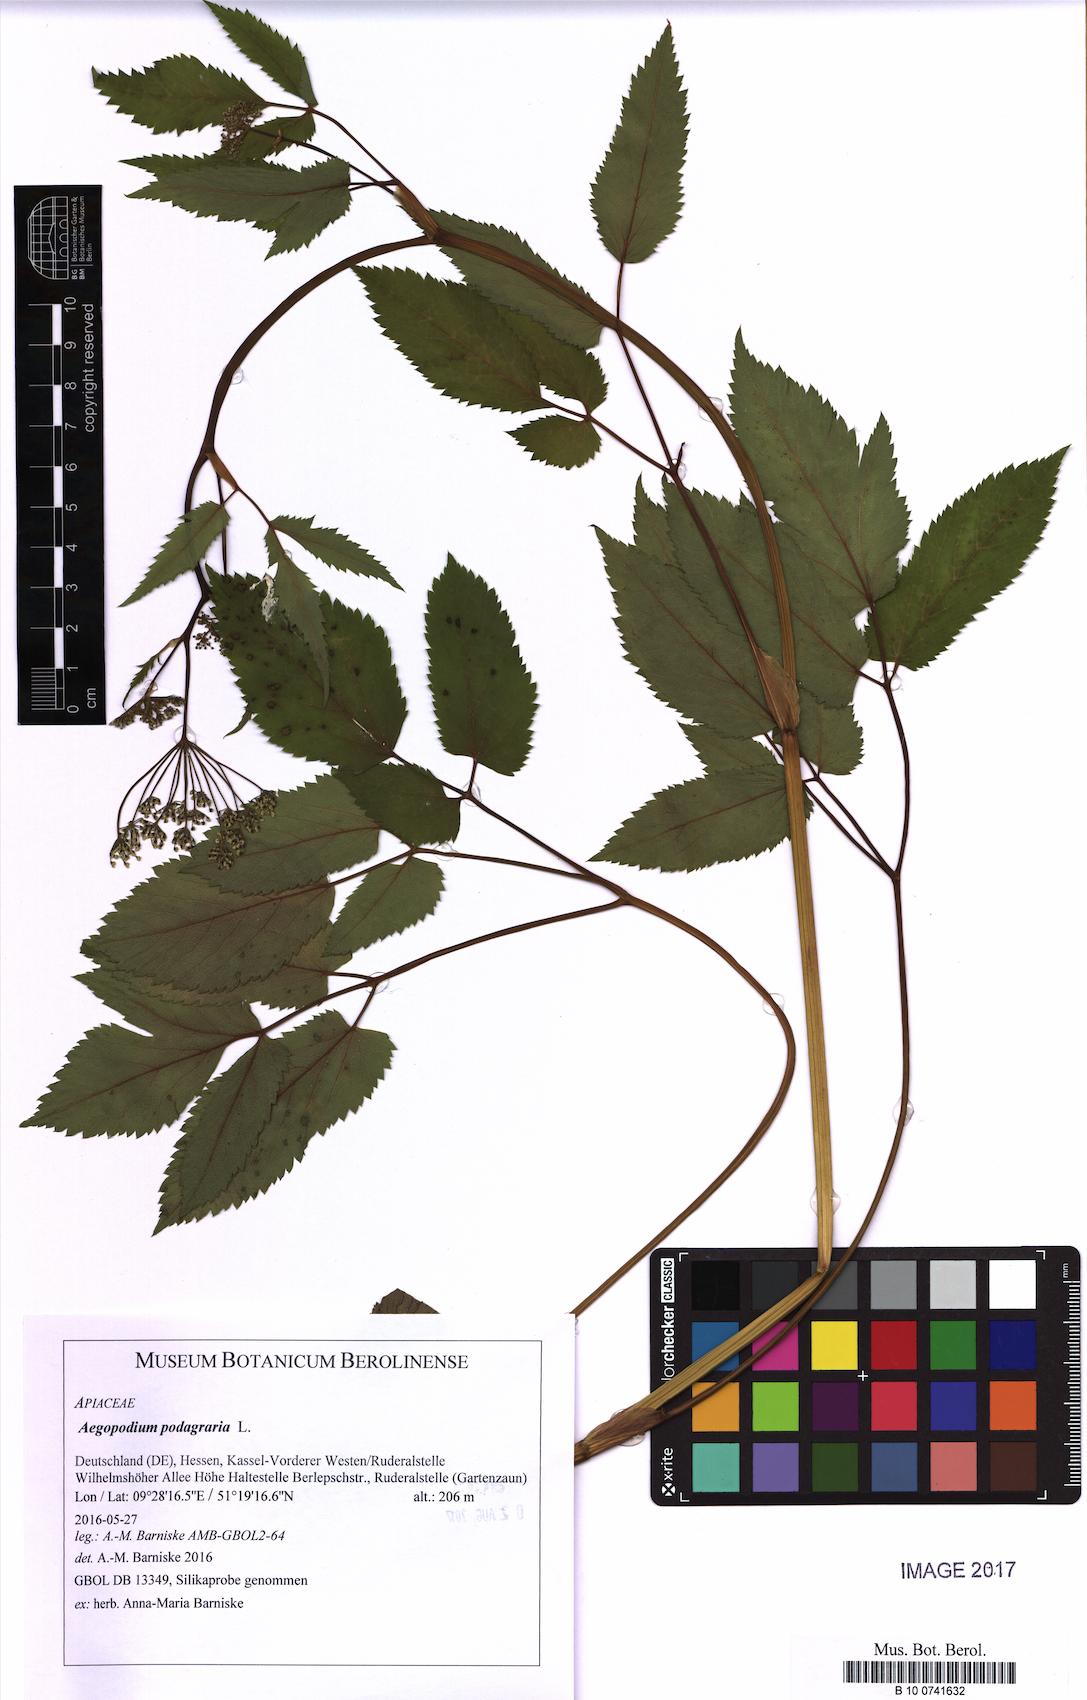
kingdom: Plantae
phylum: Tracheophyta
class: Magnoliopsida
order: Apiales
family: Apiaceae
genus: Aegopodium
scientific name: Aegopodium podagraria
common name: Ground-elder
